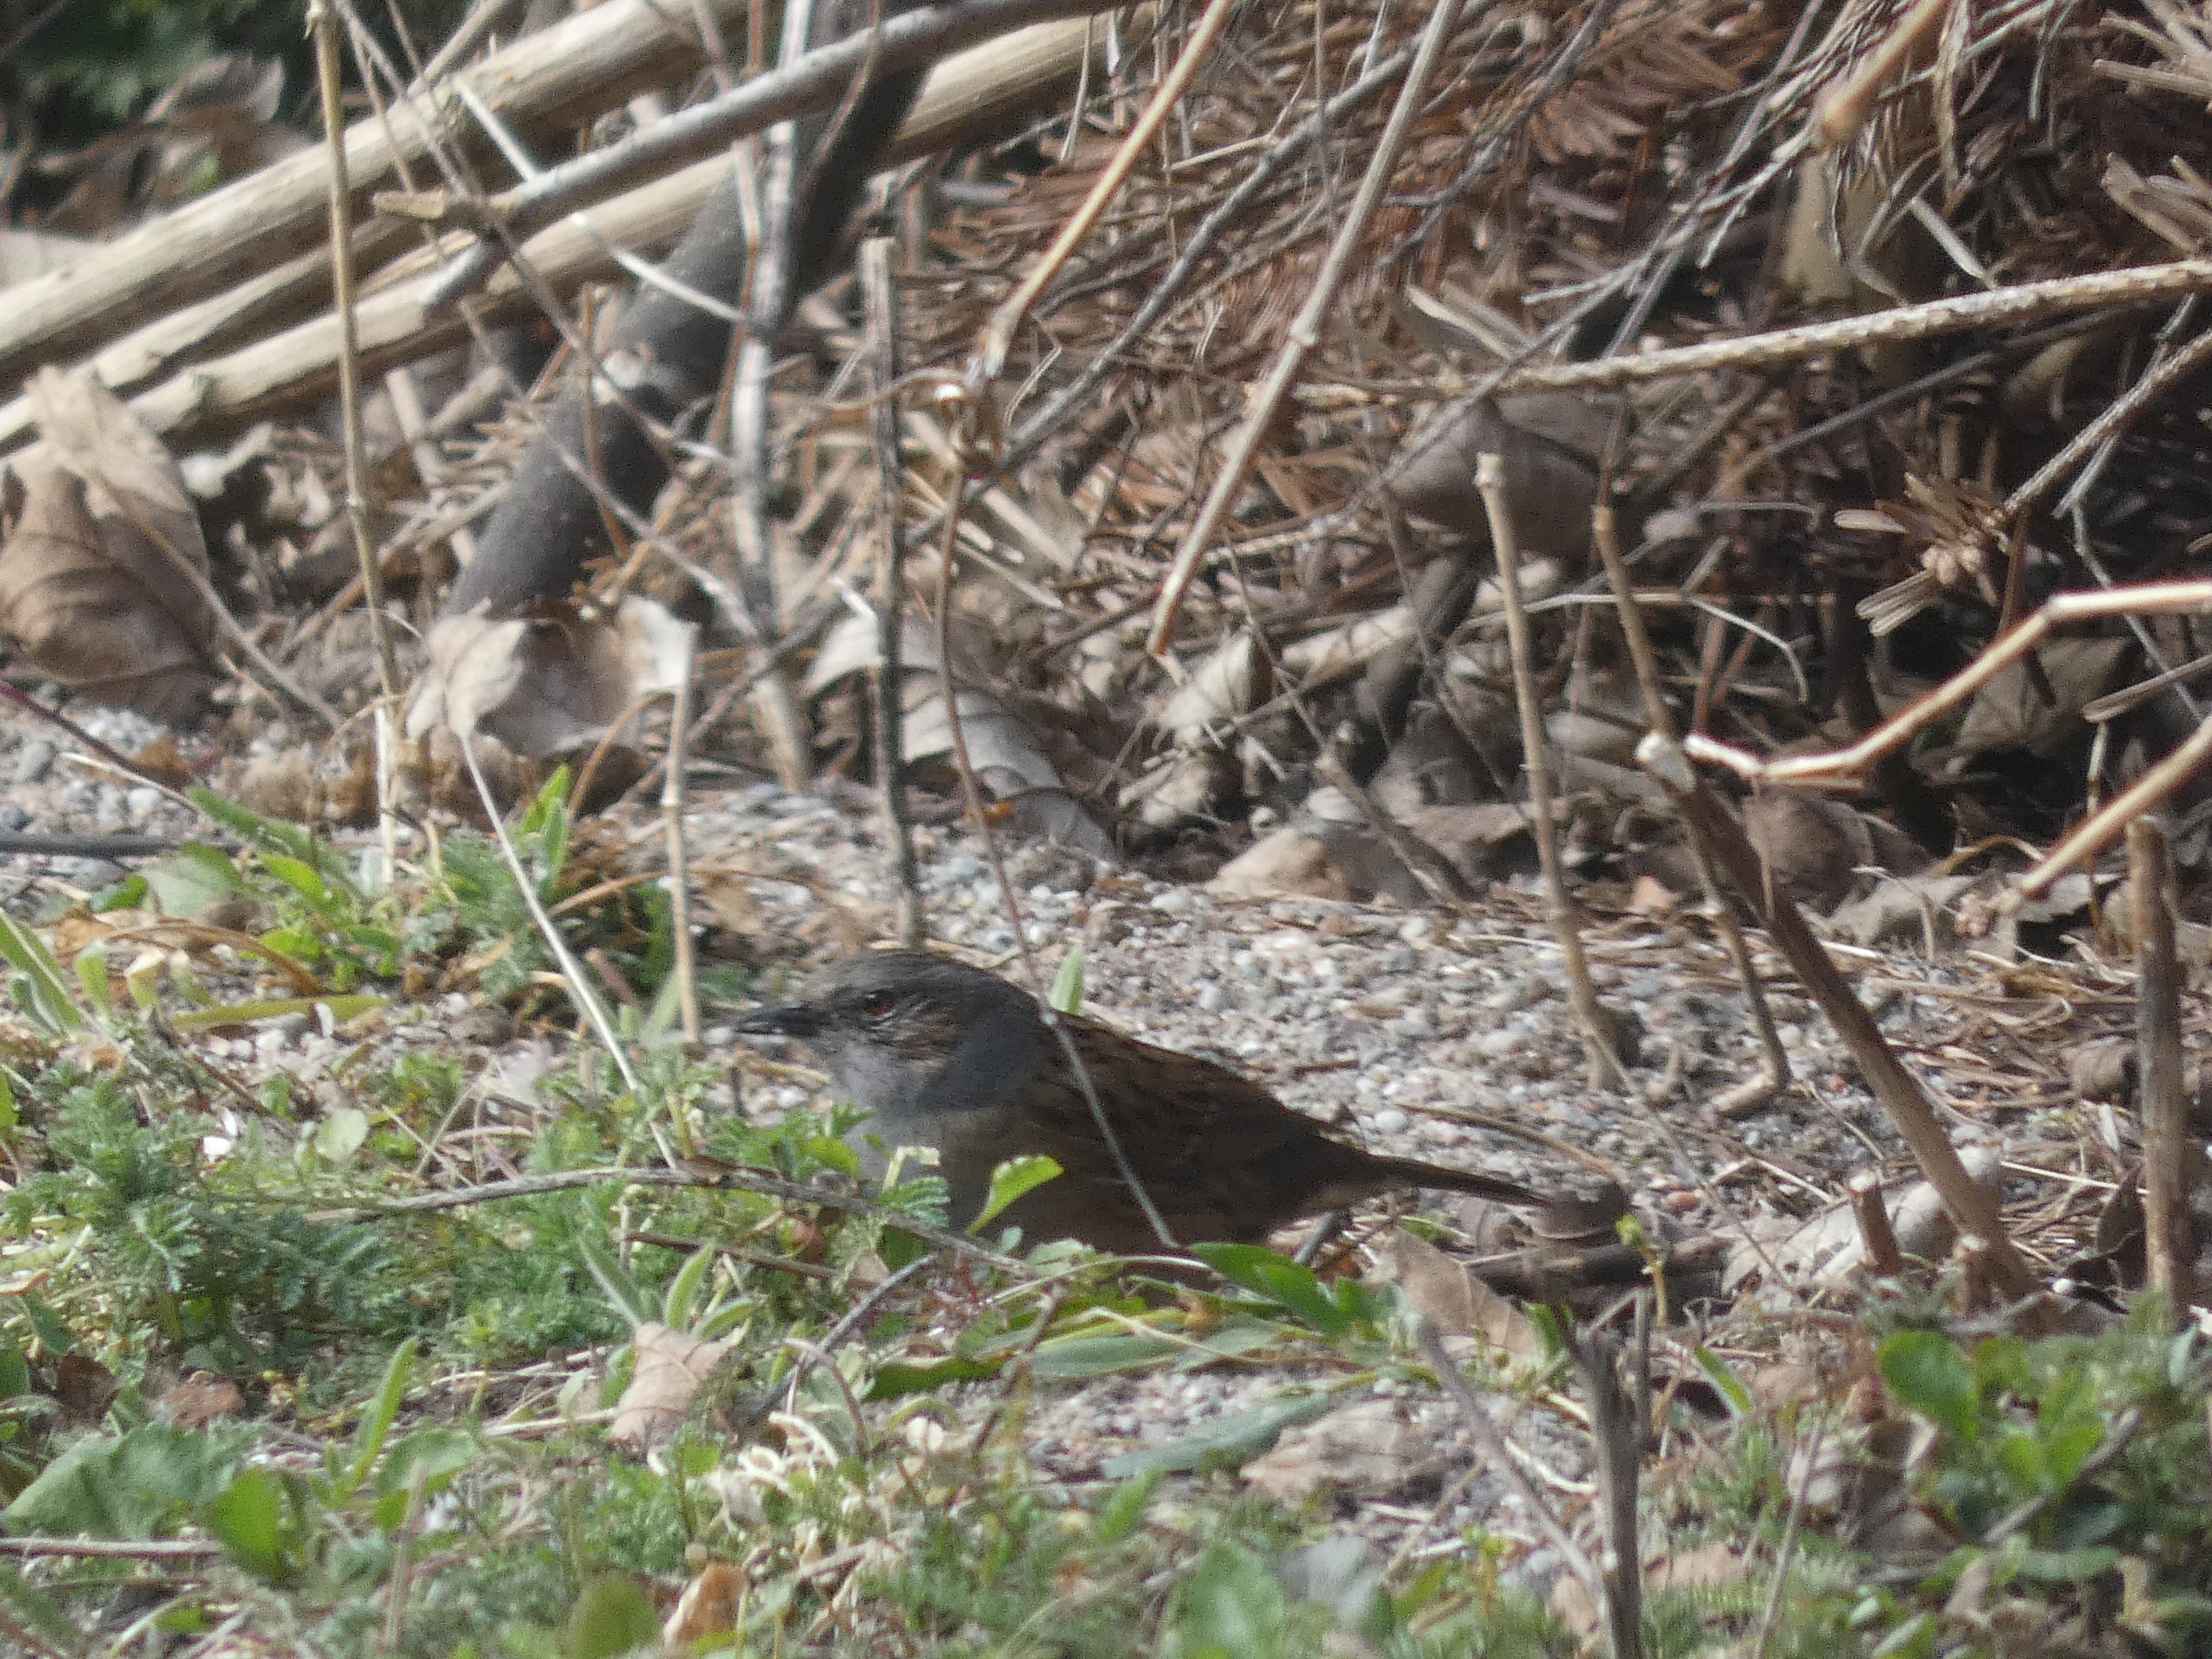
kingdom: Animalia
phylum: Chordata
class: Aves
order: Passeriformes
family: Prunellidae
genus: Prunella
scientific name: Prunella modularis
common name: Jernspurv
